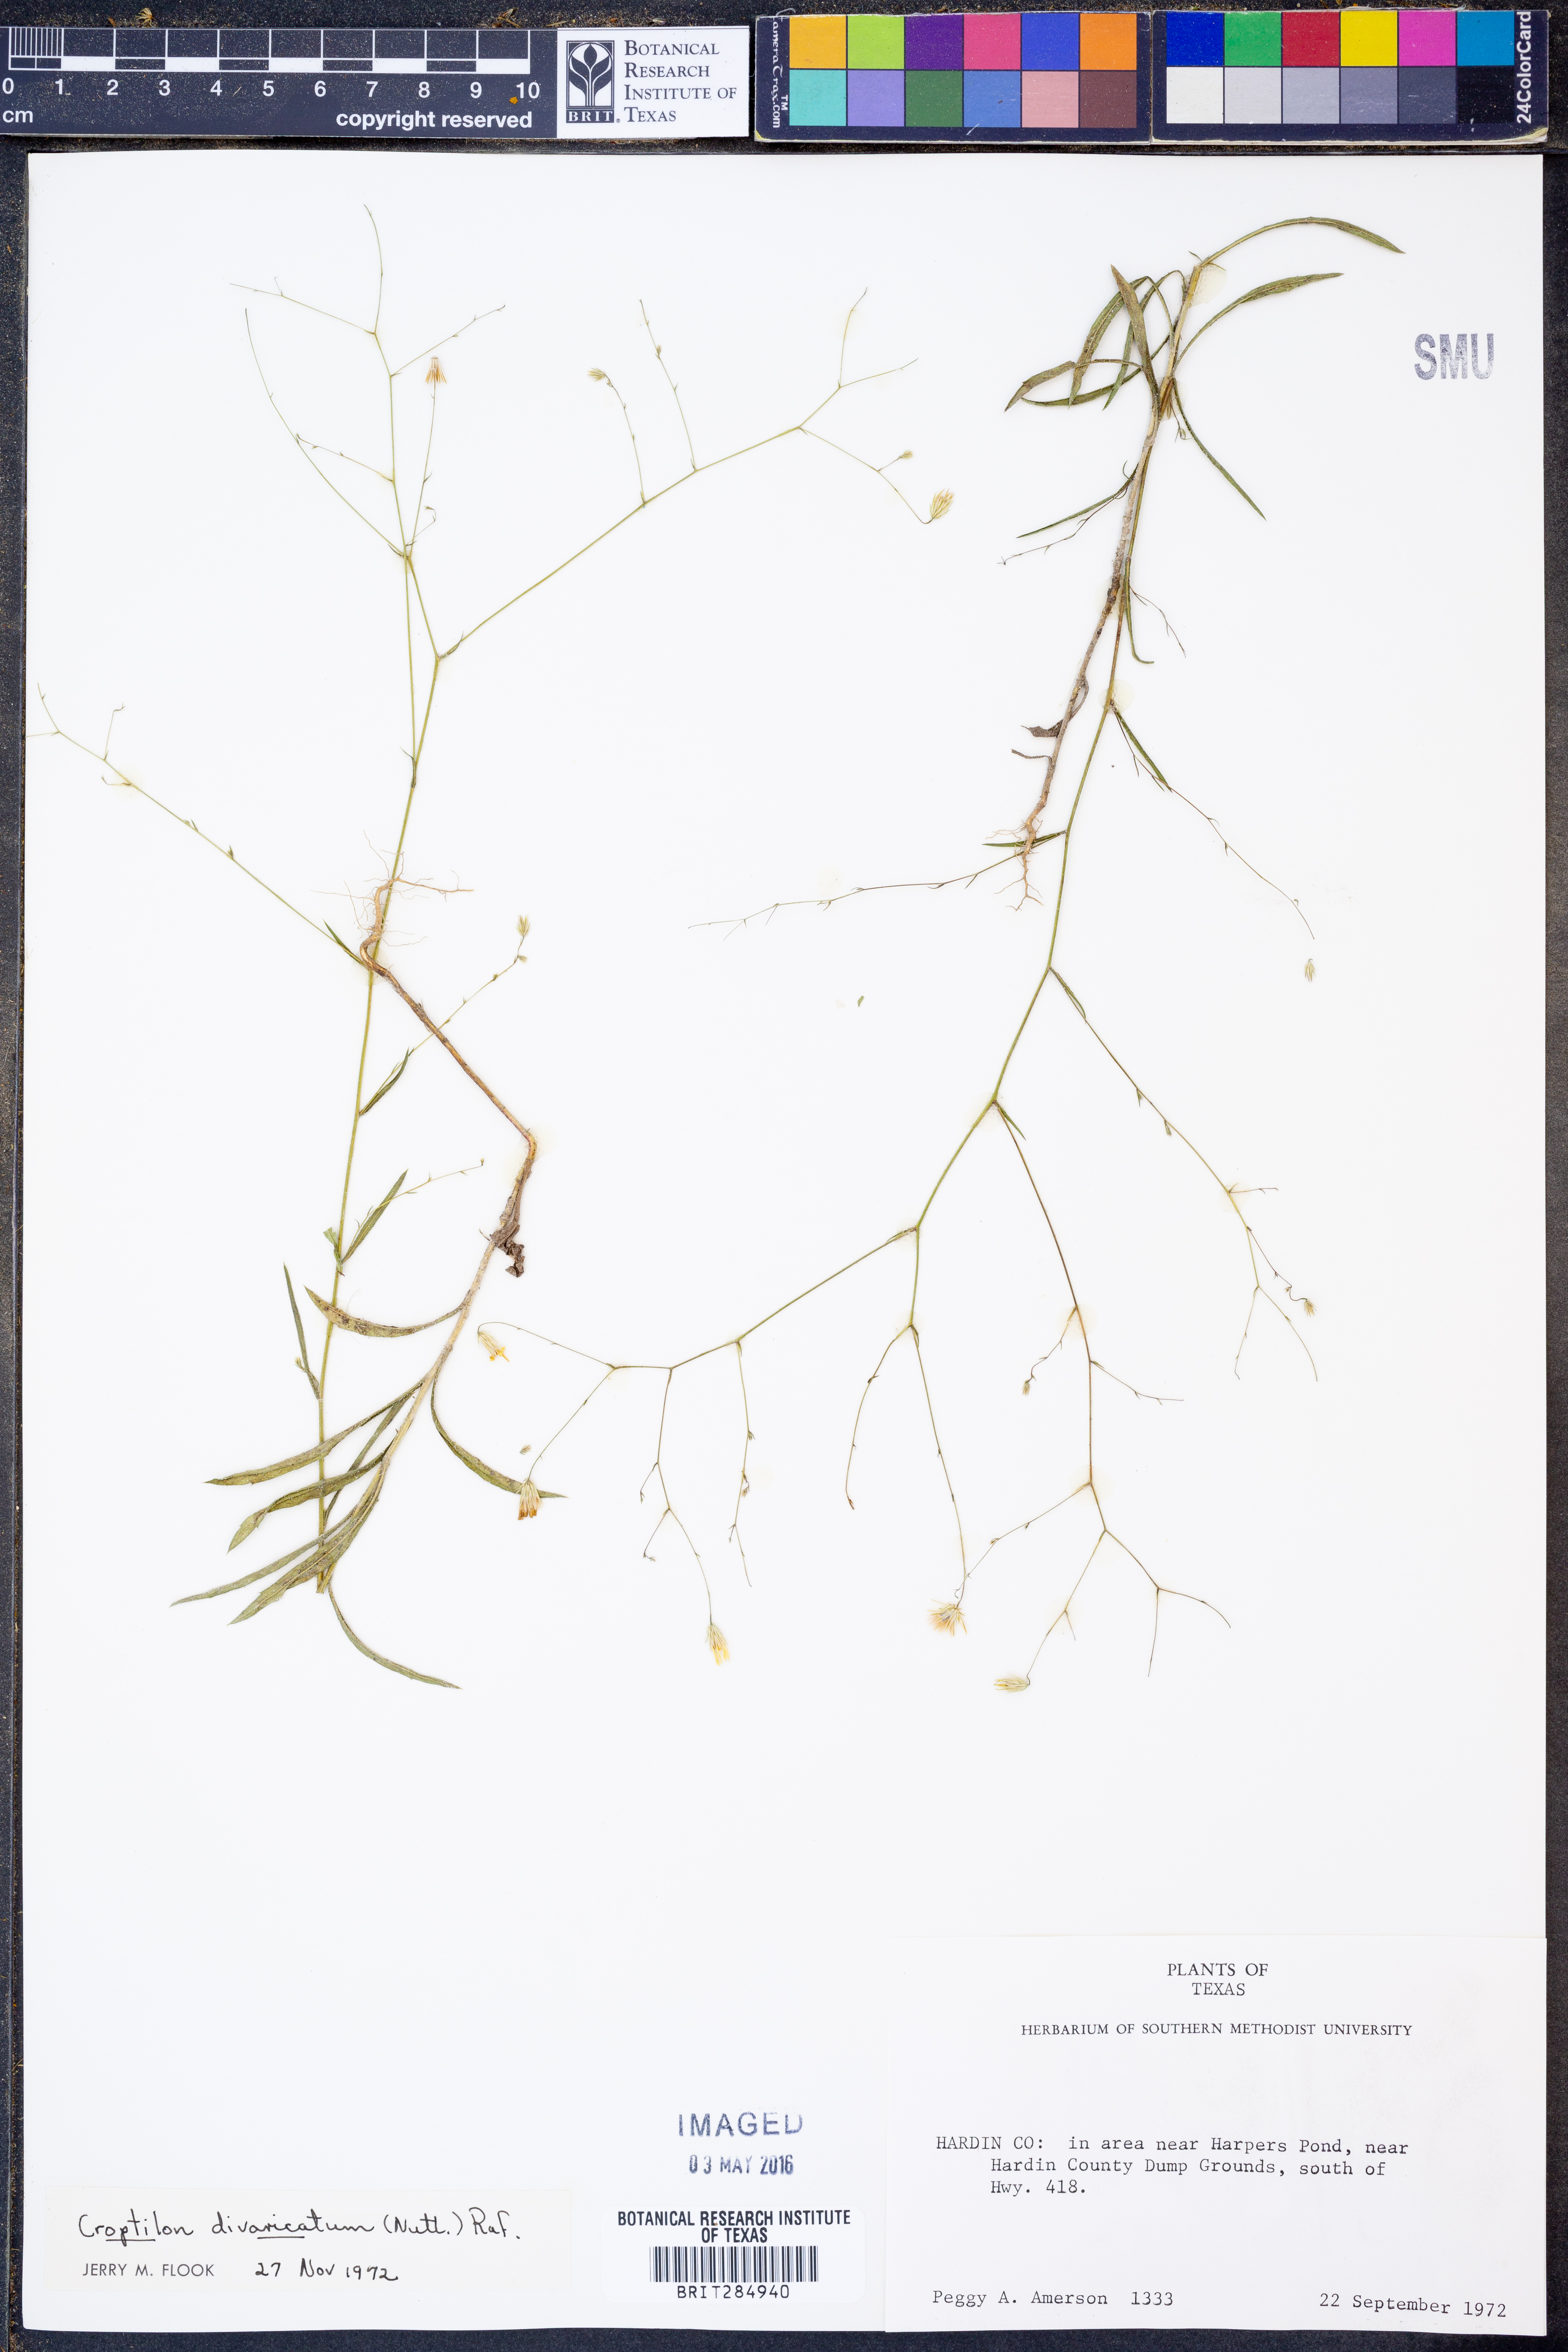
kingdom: Plantae
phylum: Tracheophyta
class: Magnoliopsida
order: Asterales
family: Asteraceae
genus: Croptilon
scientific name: Croptilon divaricatum
